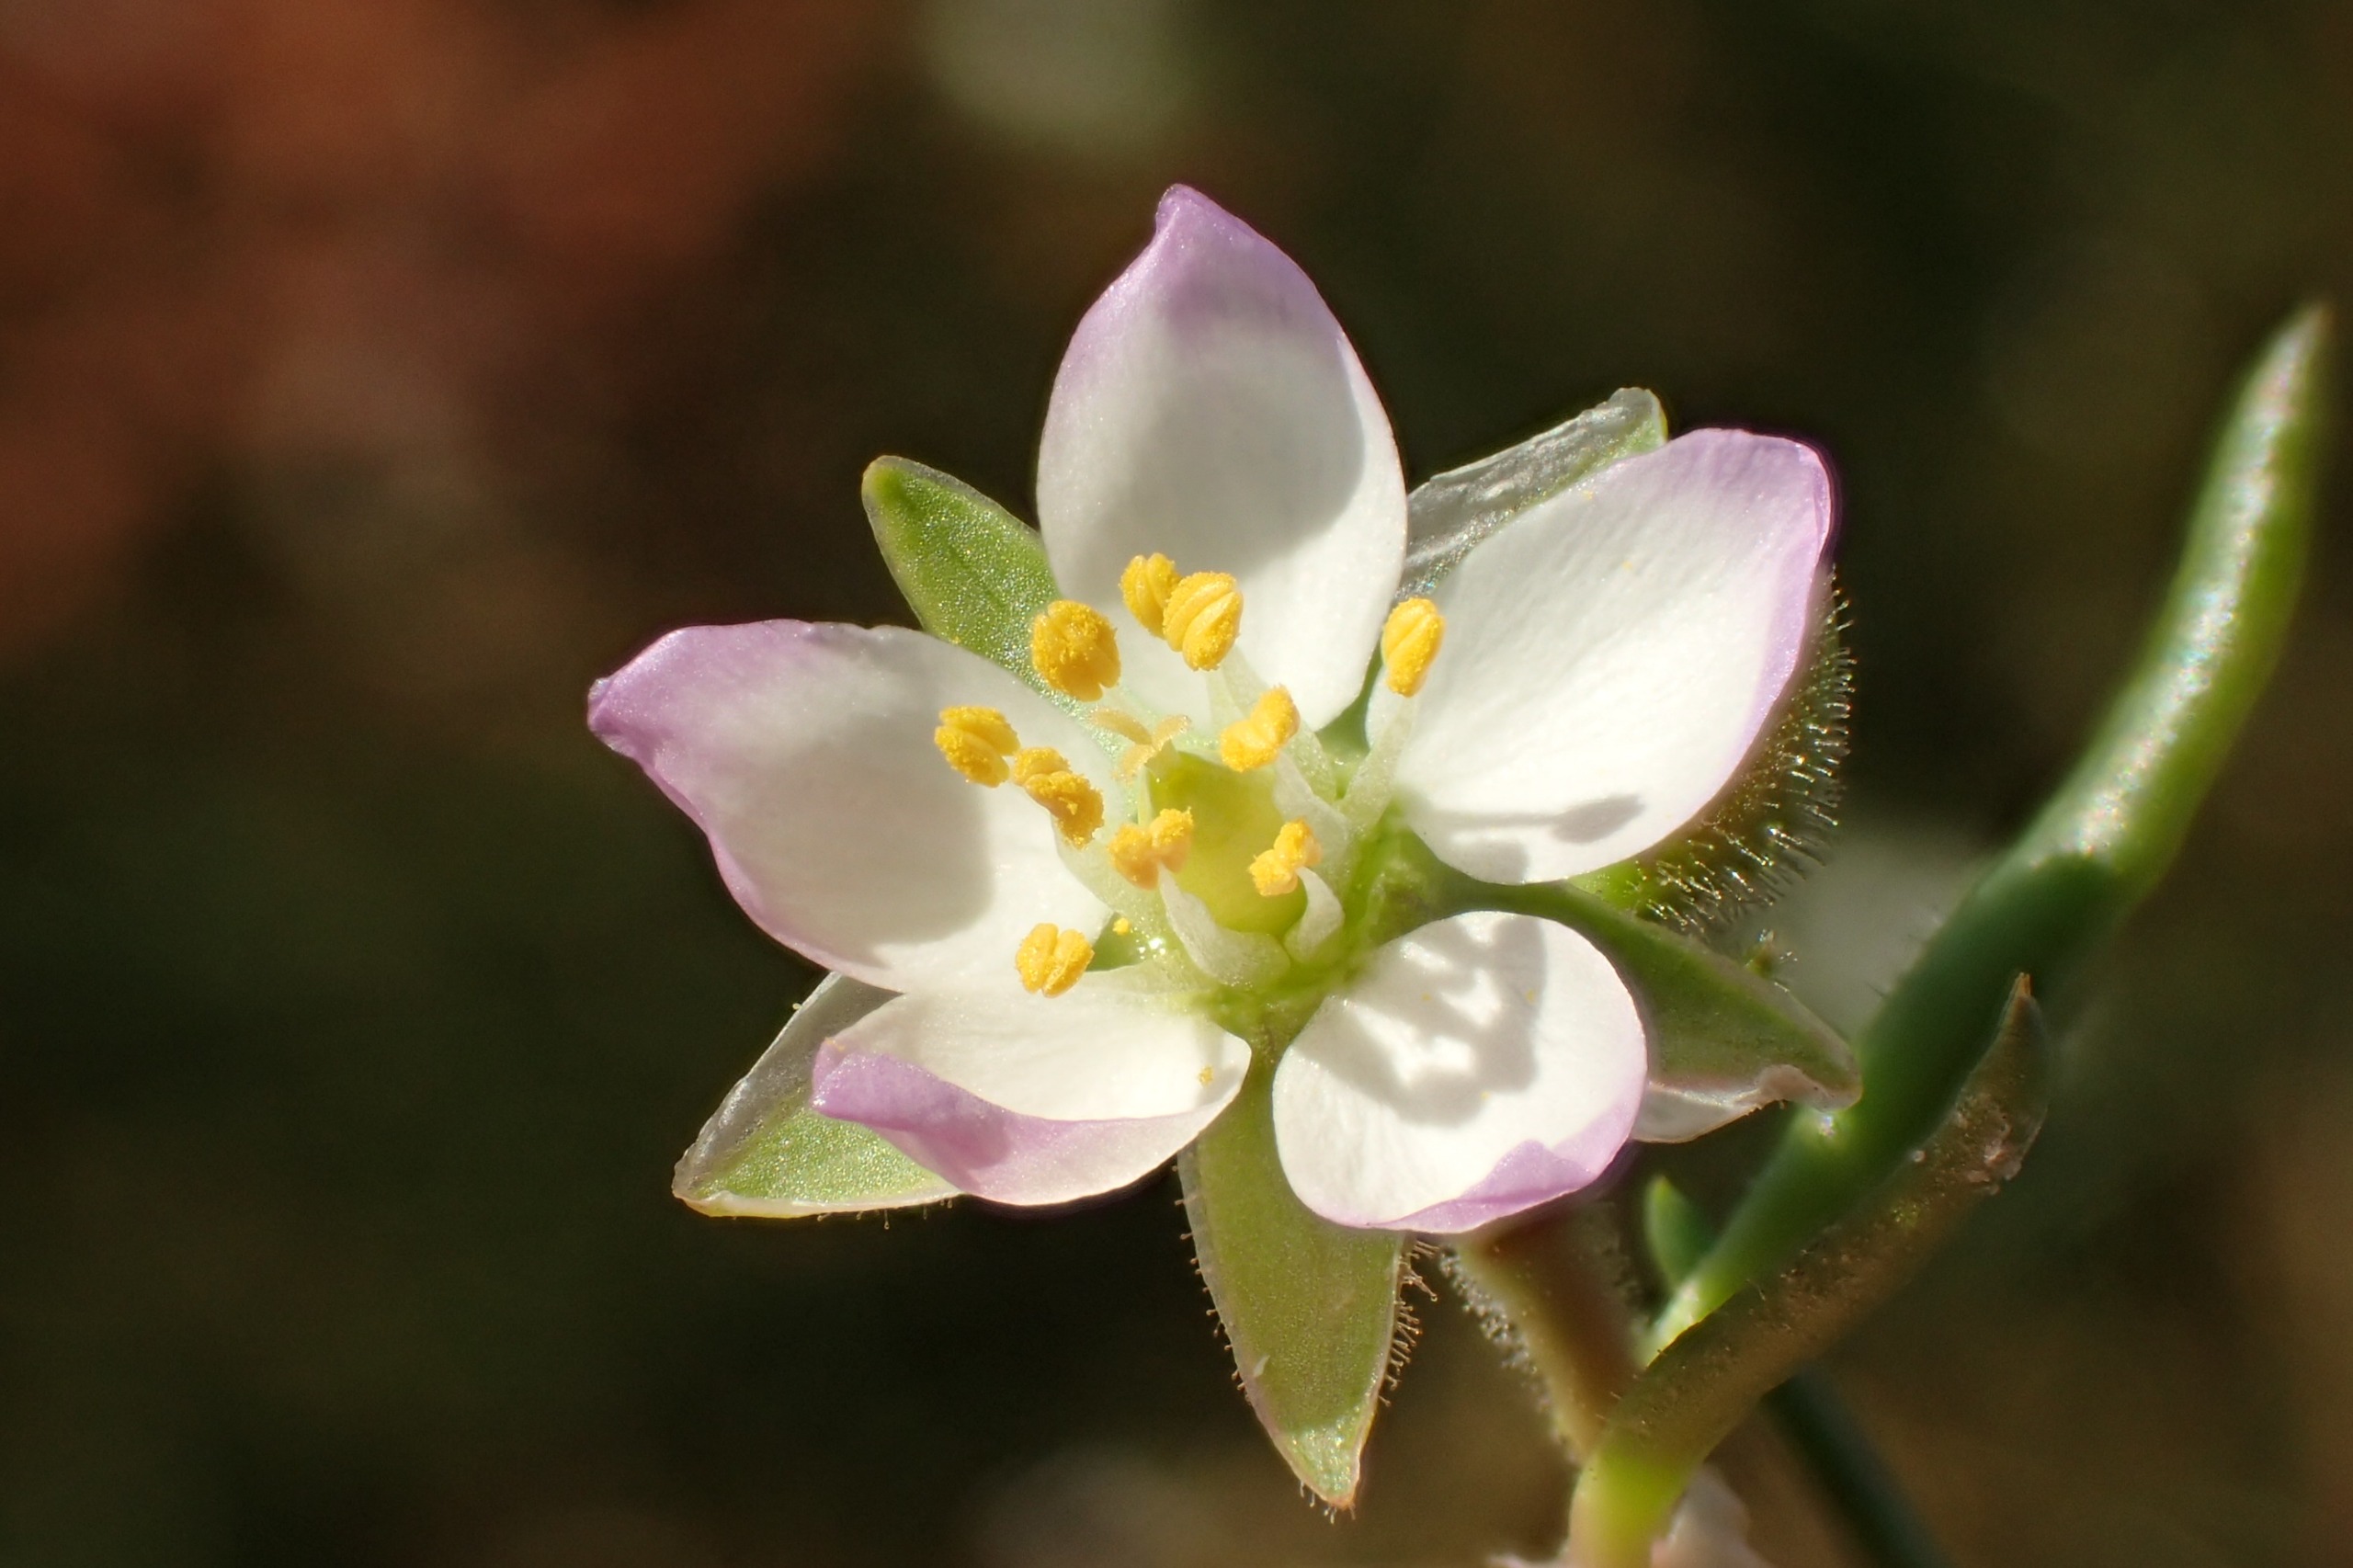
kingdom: Plantae
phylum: Tracheophyta
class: Magnoliopsida
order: Caryophyllales
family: Caryophyllaceae
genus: Spergularia
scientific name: Spergularia media
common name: Vingefrøet hindeknæ
